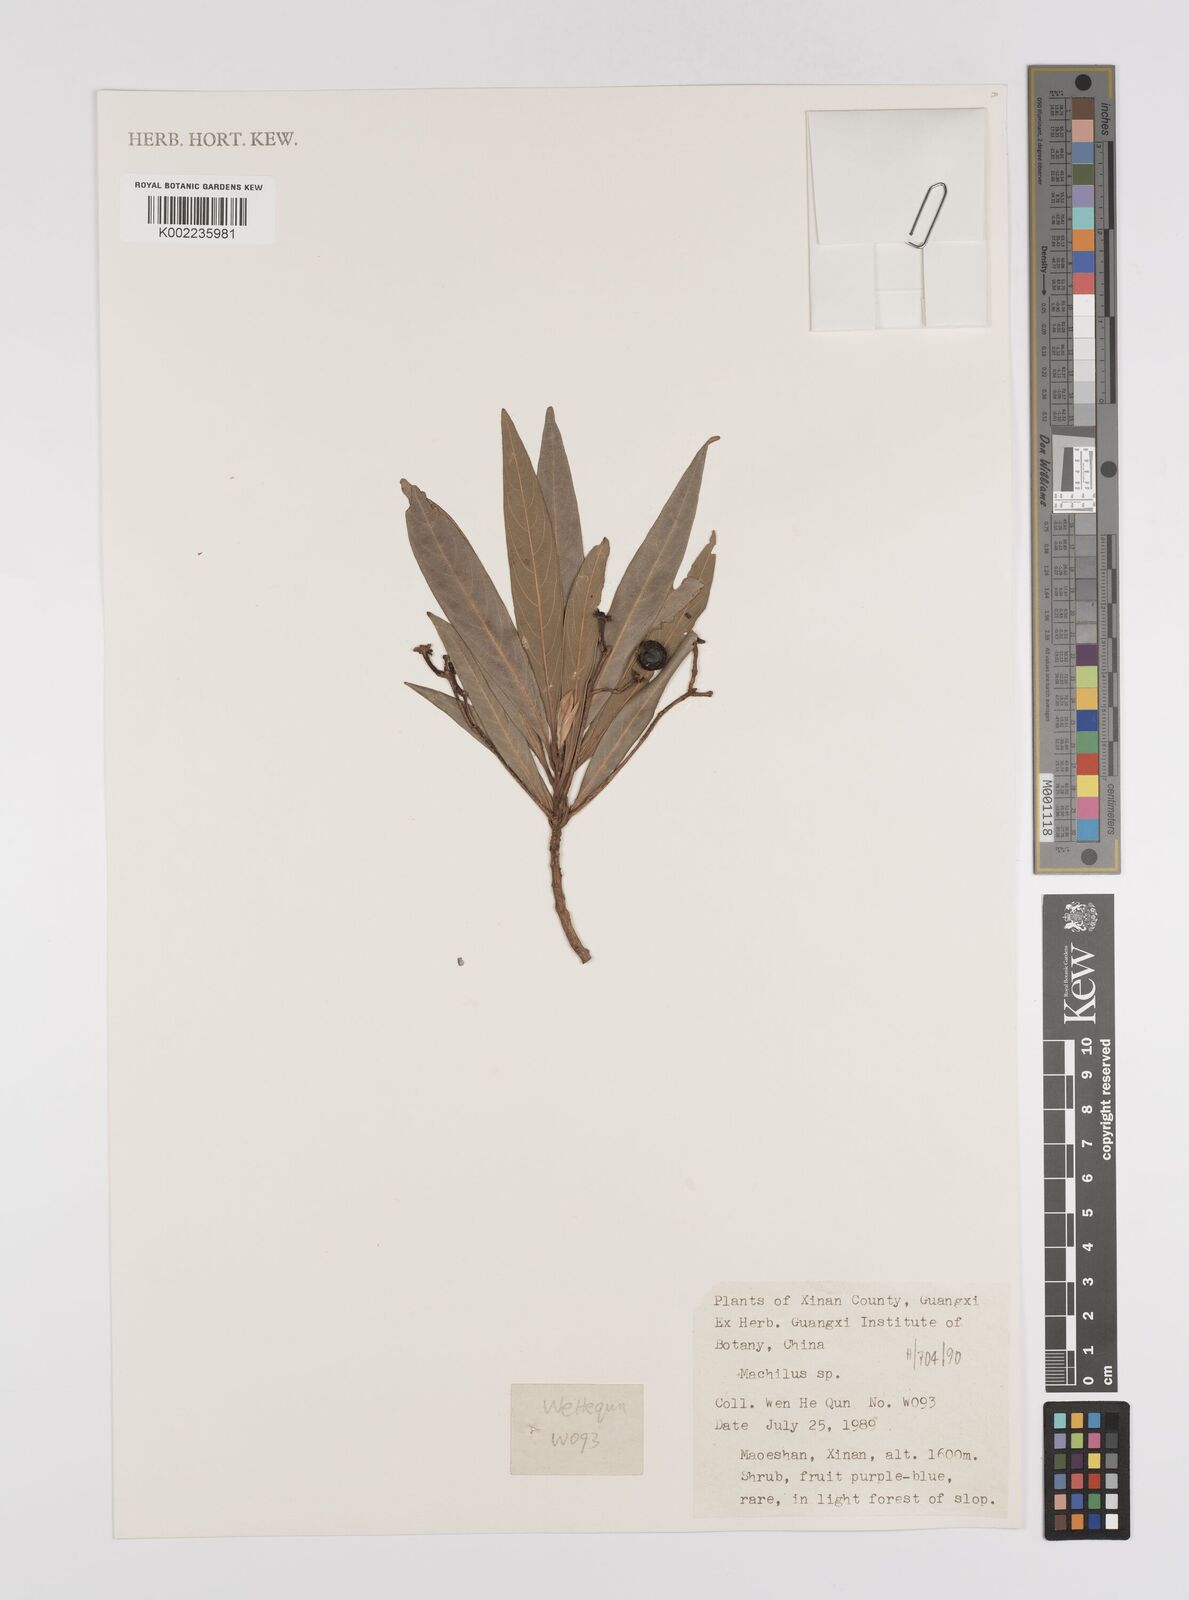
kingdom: Plantae
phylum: Tracheophyta
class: Magnoliopsida
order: Laurales
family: Lauraceae
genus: Persea
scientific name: Persea
